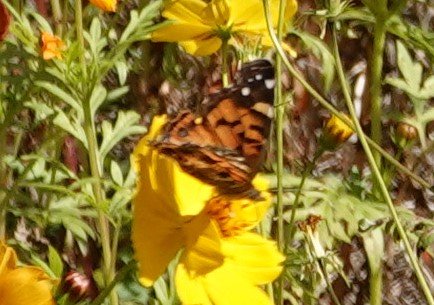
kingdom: Animalia
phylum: Arthropoda
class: Insecta
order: Lepidoptera
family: Nymphalidae
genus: Vanessa
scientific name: Vanessa virginiensis
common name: American Lady
